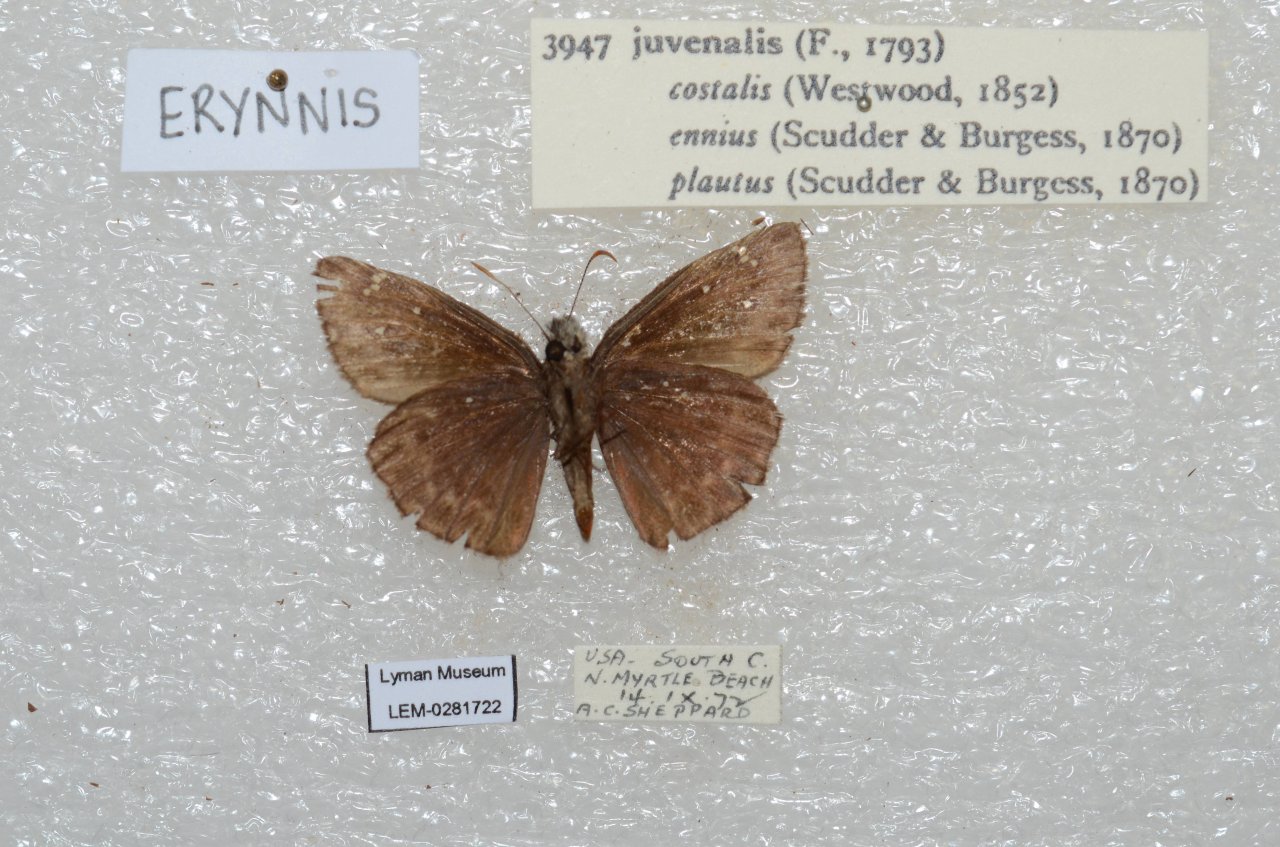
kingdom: Animalia
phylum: Arthropoda
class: Insecta
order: Lepidoptera
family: Hesperiidae
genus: Gesta
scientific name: Gesta
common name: Horace's Duskywing
